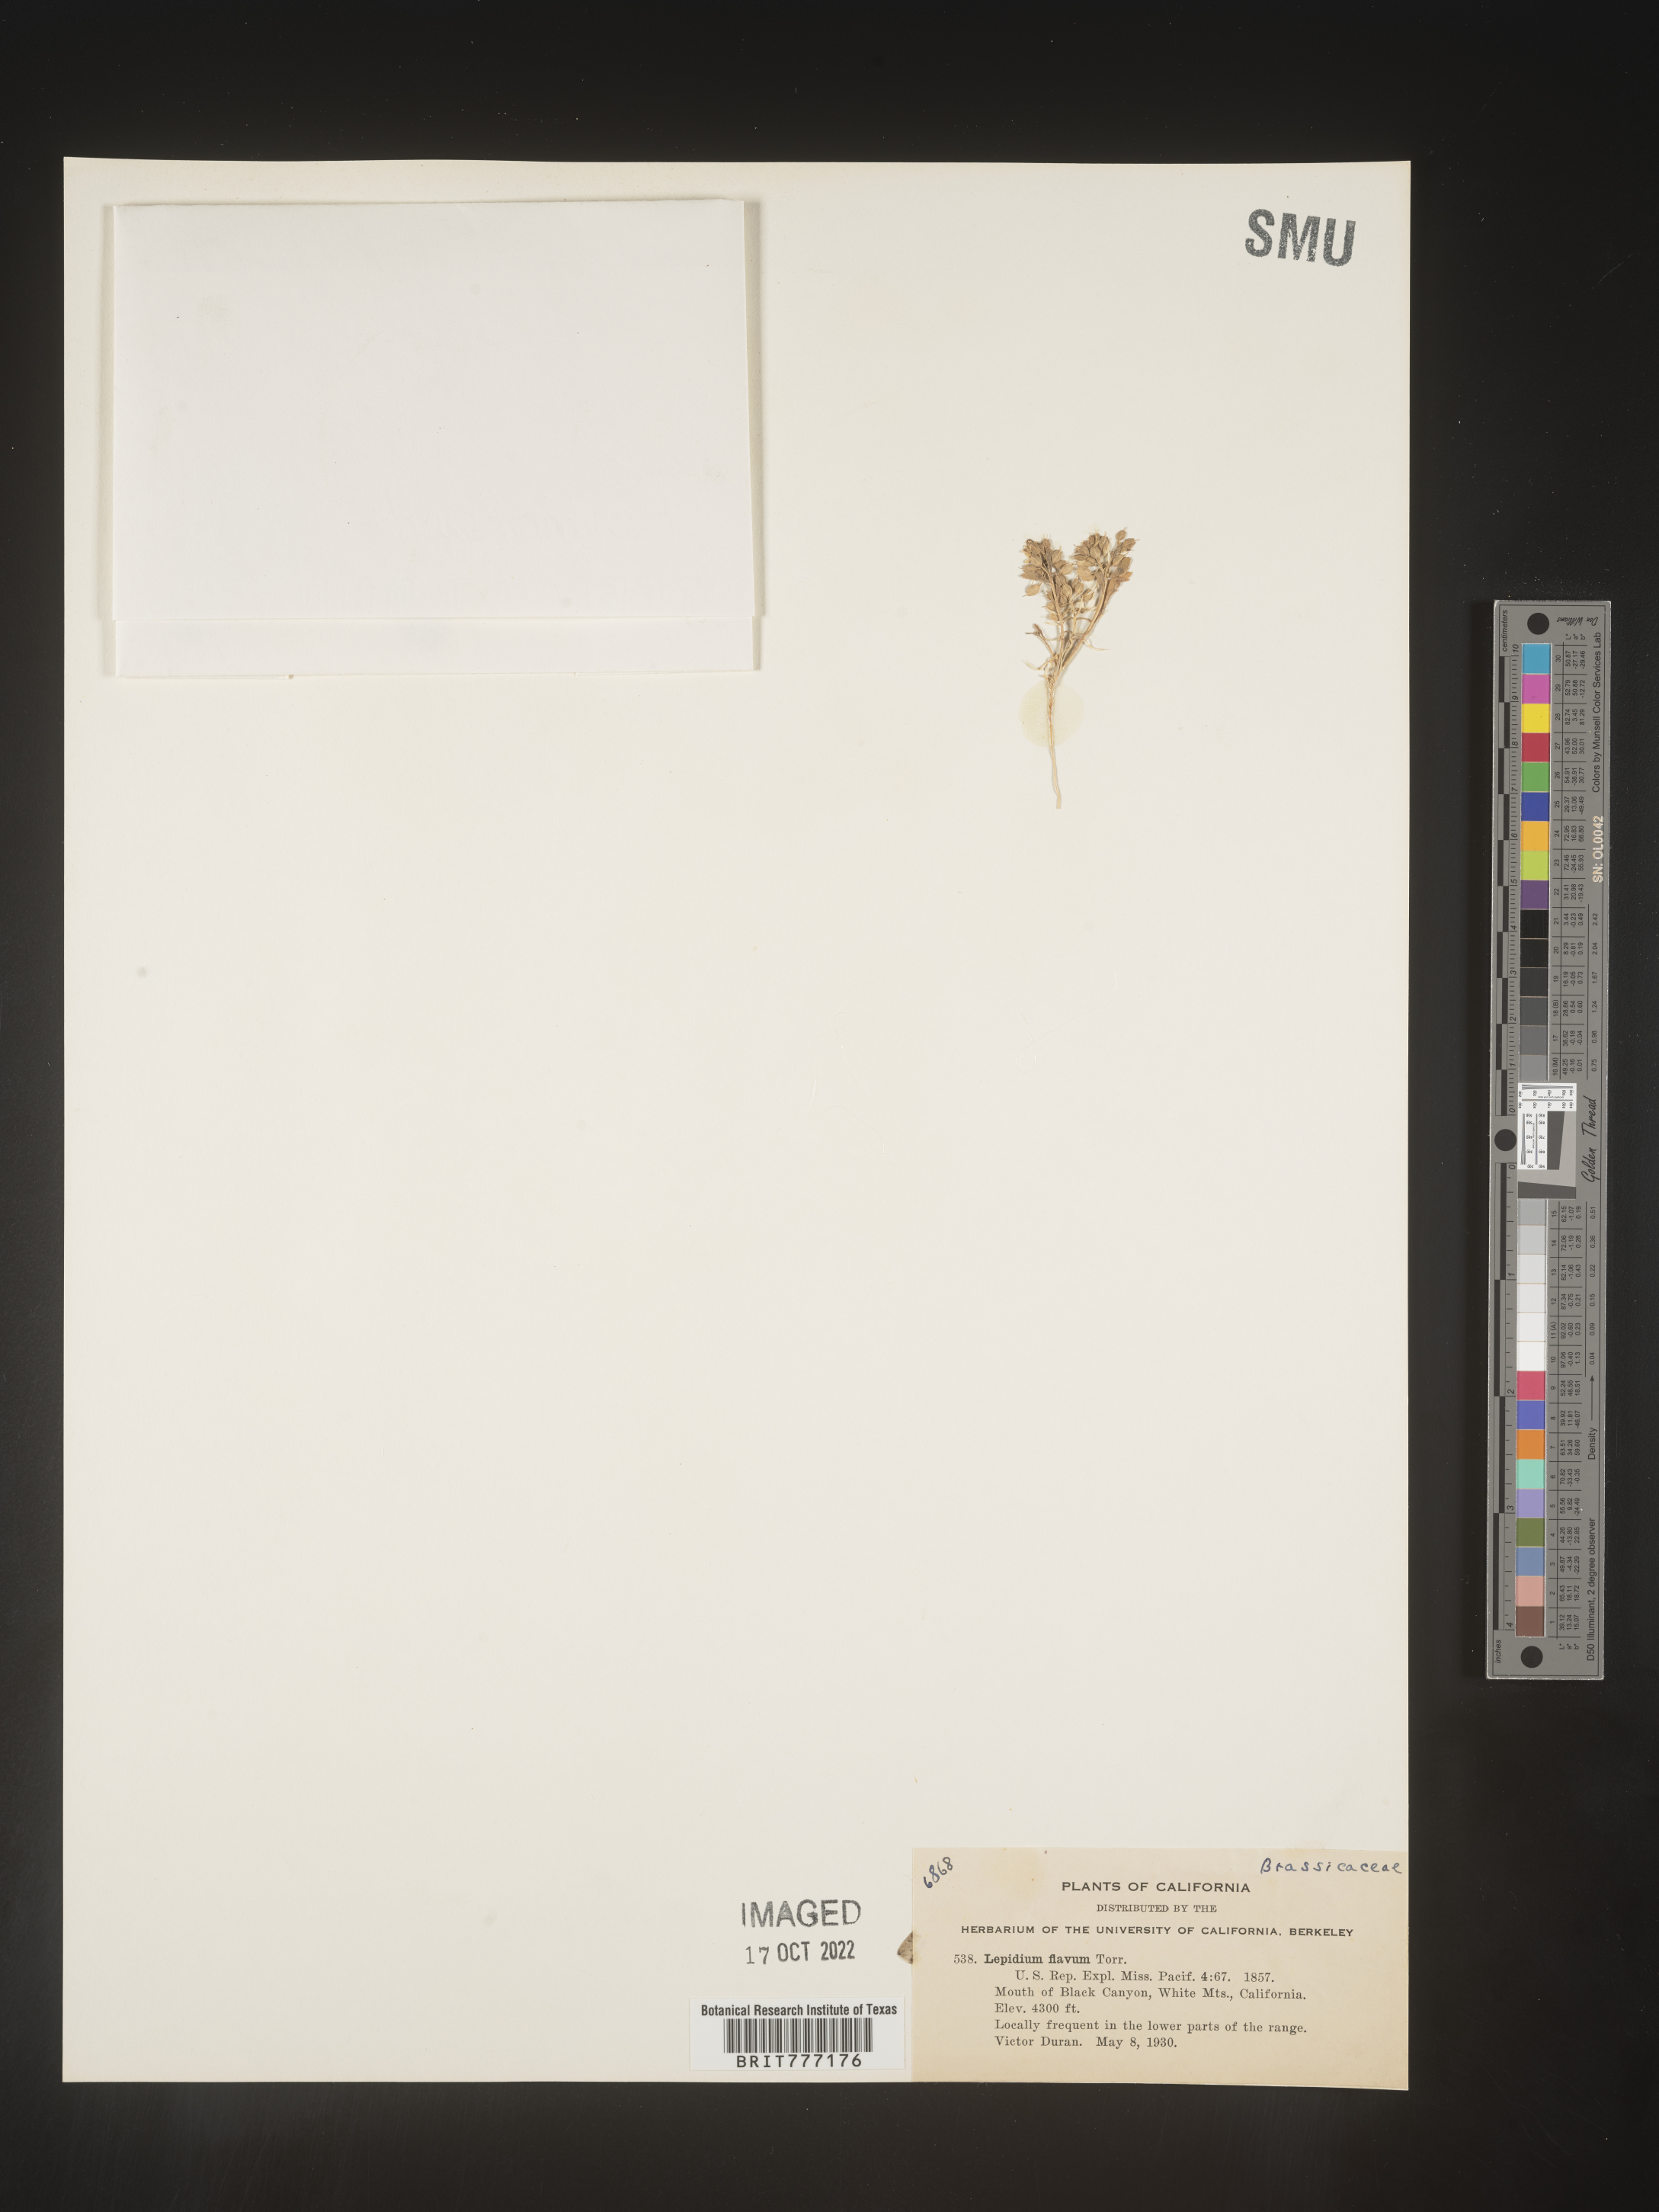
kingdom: Plantae
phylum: Tracheophyta
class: Magnoliopsida
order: Brassicales
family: Brassicaceae
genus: Lepidium
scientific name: Lepidium flavum
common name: Yellow pepperwort
